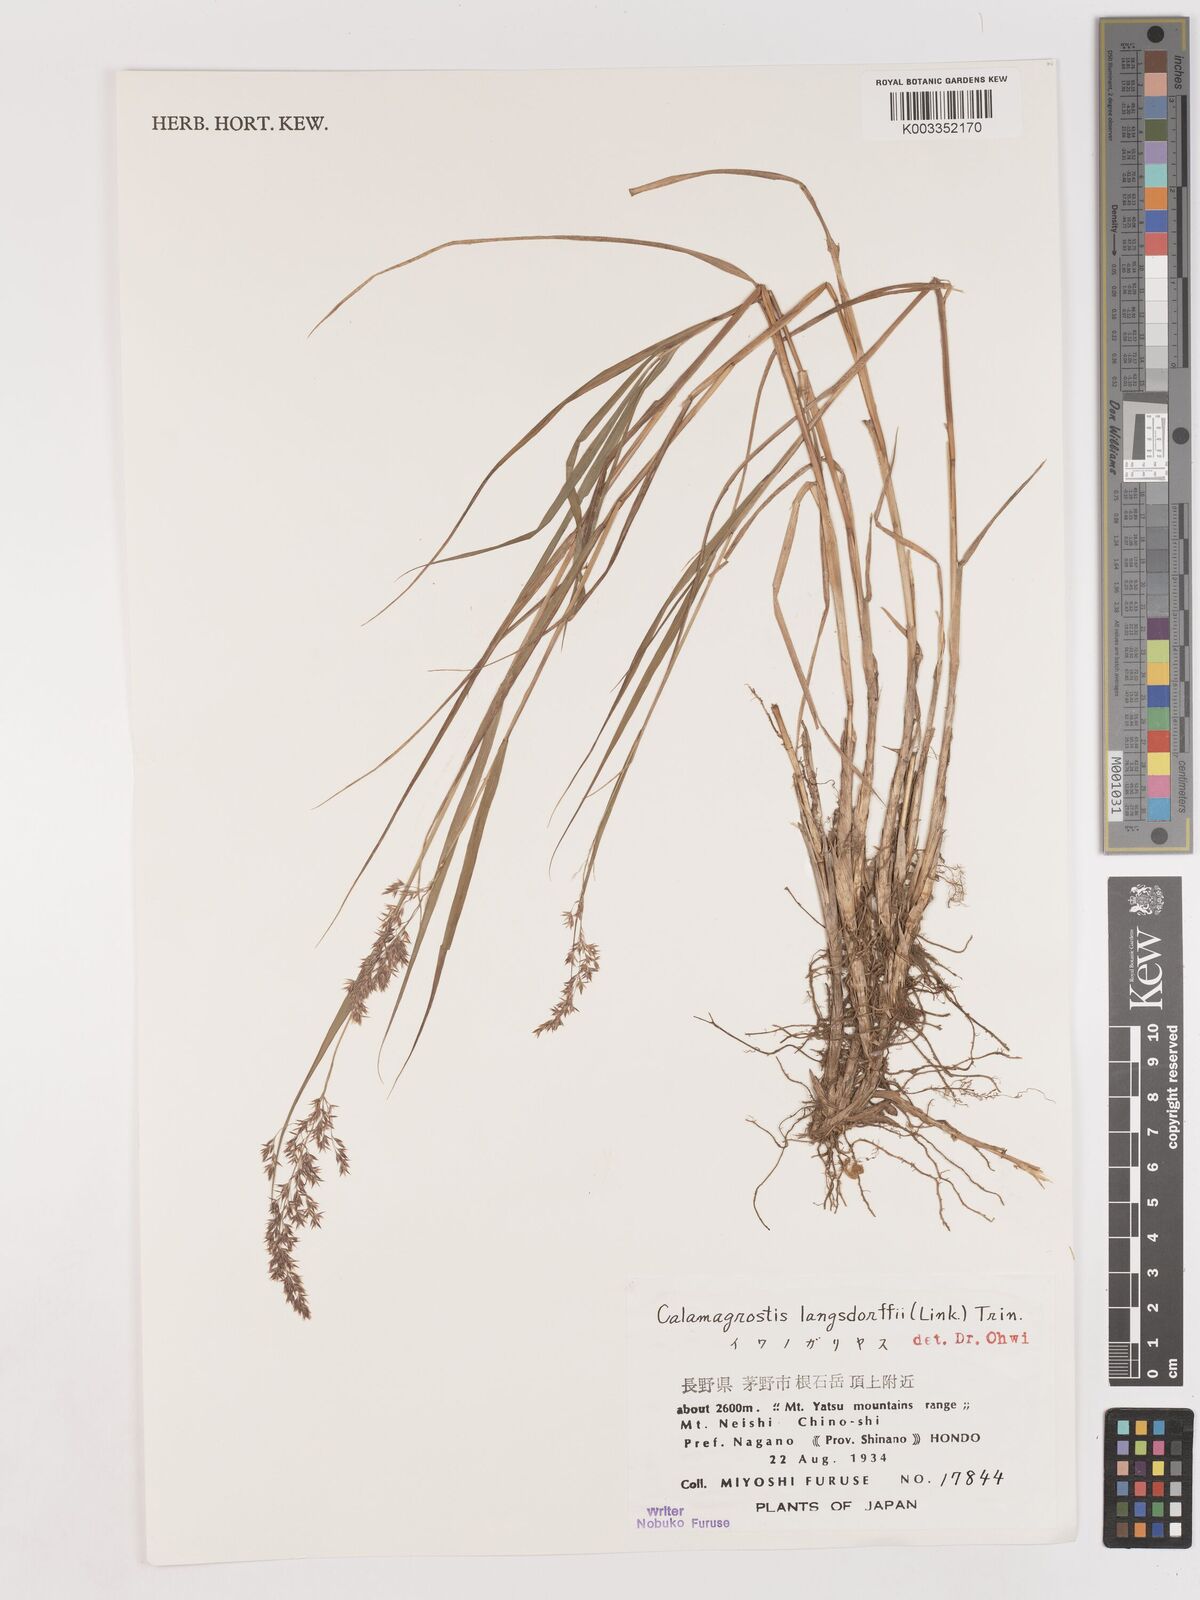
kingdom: Plantae
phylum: Tracheophyta
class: Liliopsida
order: Poales
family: Poaceae
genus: Calamagrostis
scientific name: Calamagrostis purpurea
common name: Scandinavian small-reed
